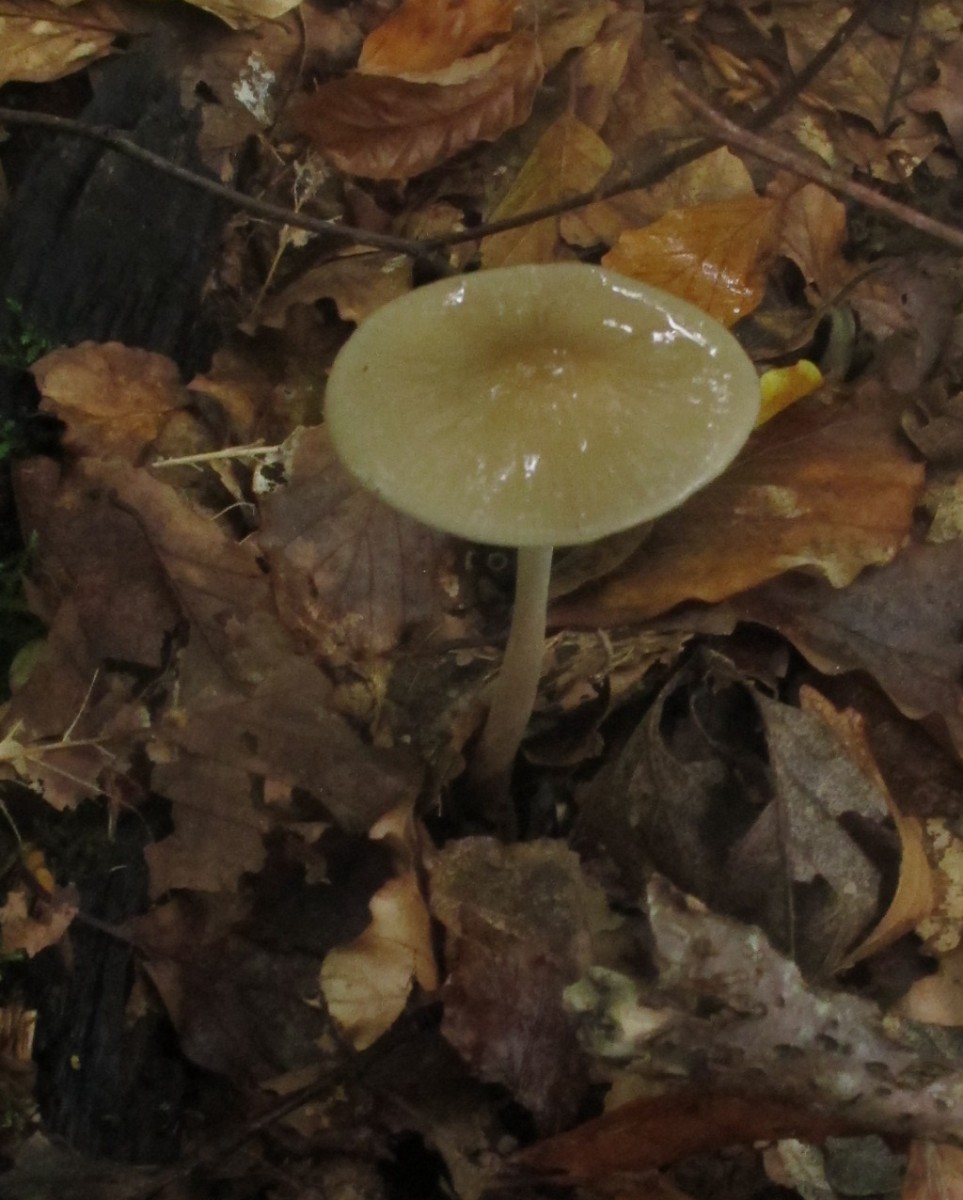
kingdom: Fungi
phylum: Basidiomycota
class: Agaricomycetes
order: Agaricales
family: Physalacriaceae
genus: Hymenopellis
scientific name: Hymenopellis radicata
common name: almindelig pælerodshat
